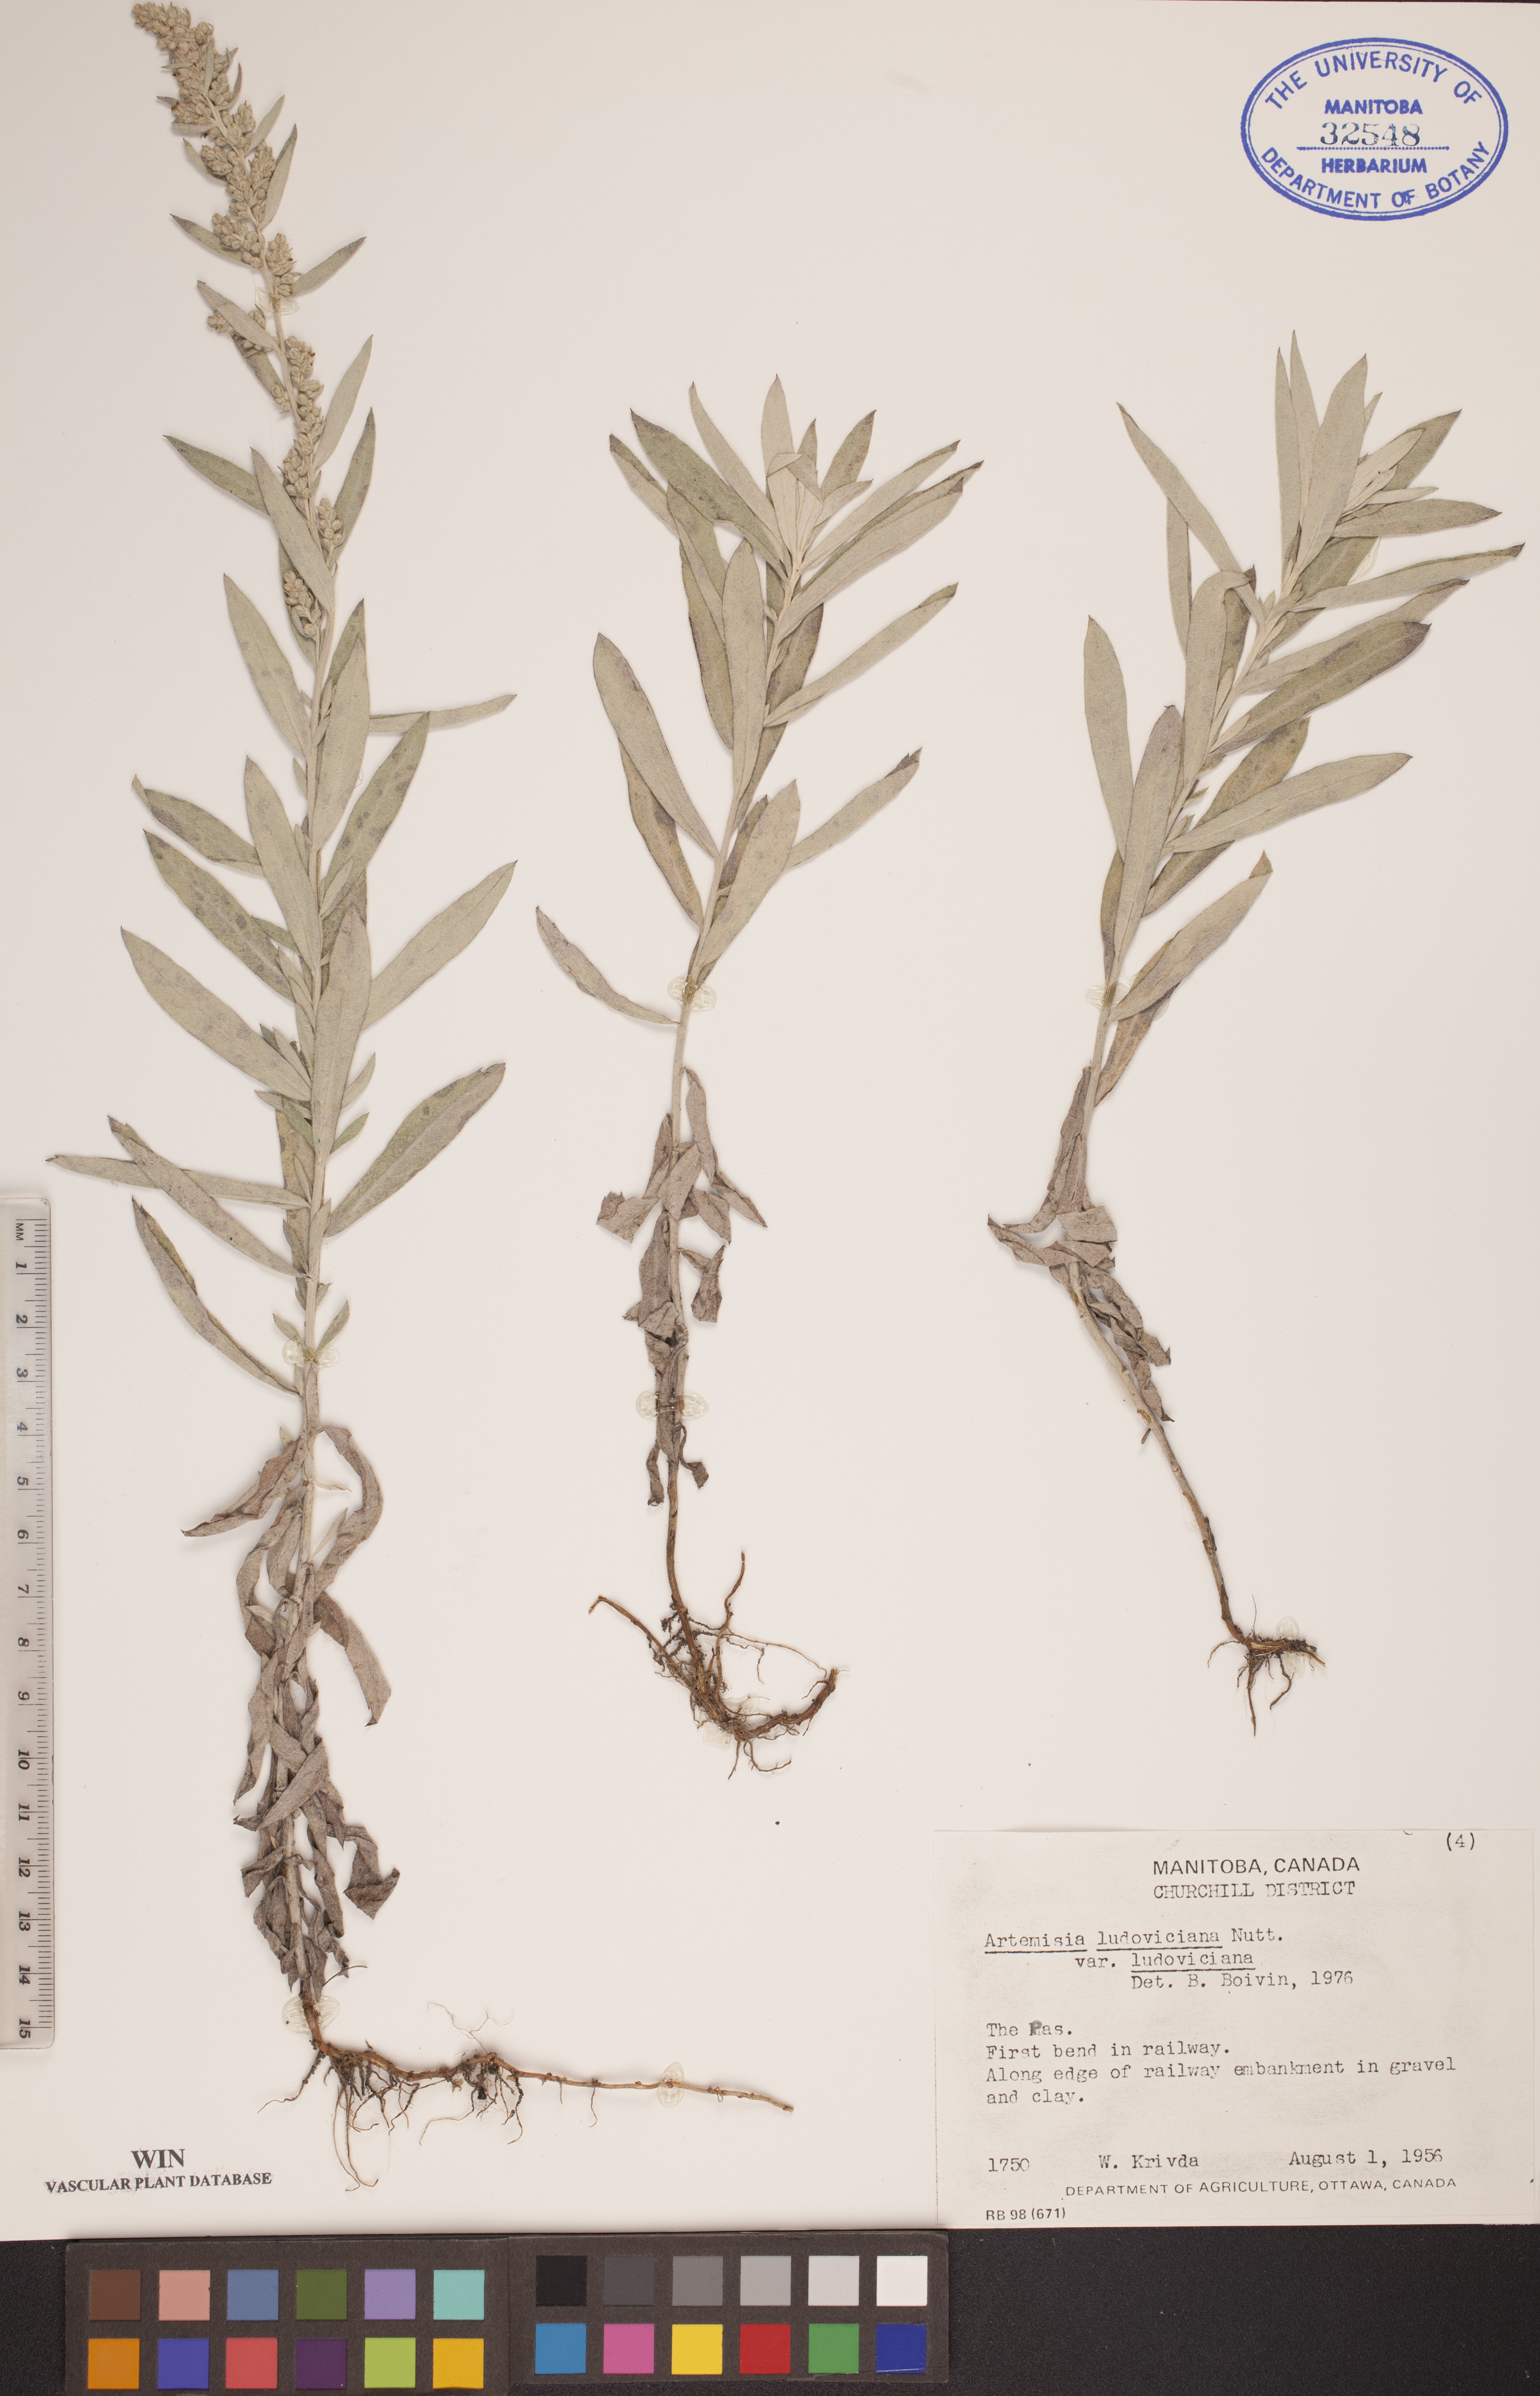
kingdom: Plantae
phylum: Tracheophyta
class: Magnoliopsida
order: Asterales
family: Asteraceae
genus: Artemisia
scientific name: Artemisia ludoviciana
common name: Western mugwort
